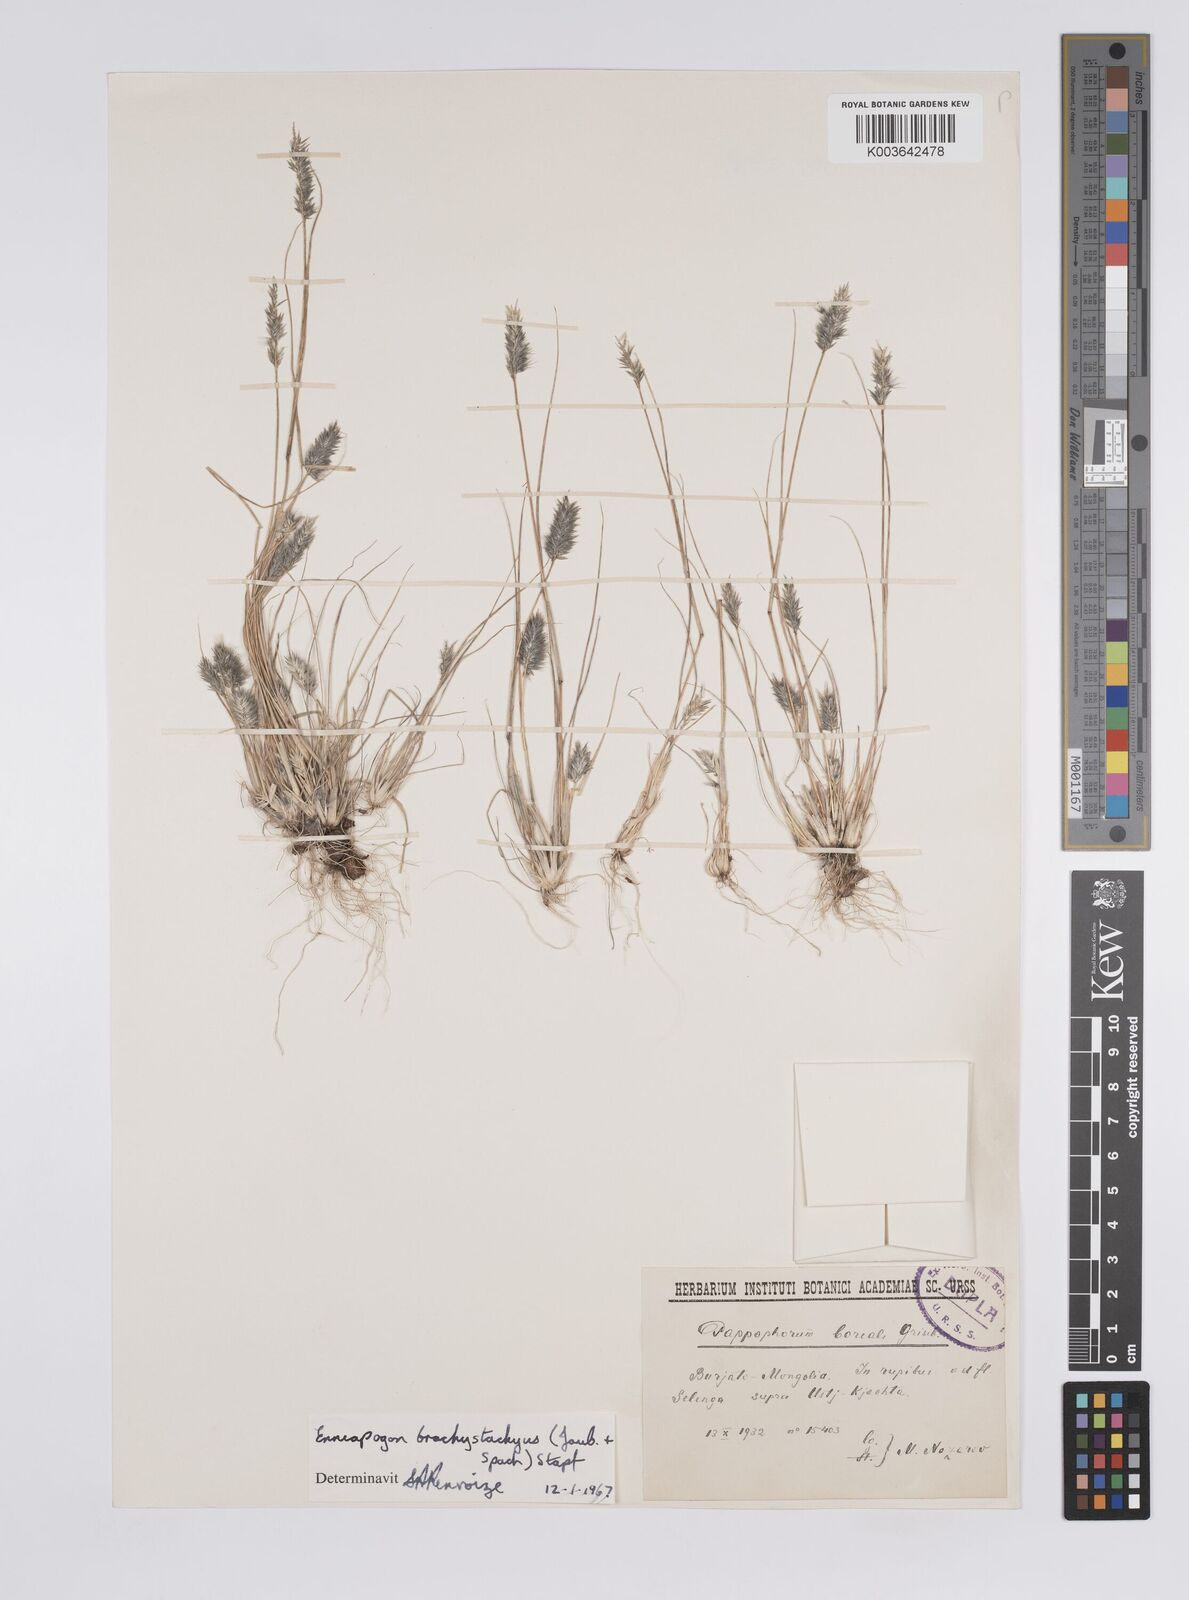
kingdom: Plantae
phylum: Tracheophyta
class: Liliopsida
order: Poales
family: Poaceae
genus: Enneapogon
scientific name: Enneapogon desvauxii
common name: Feather pappus grass
